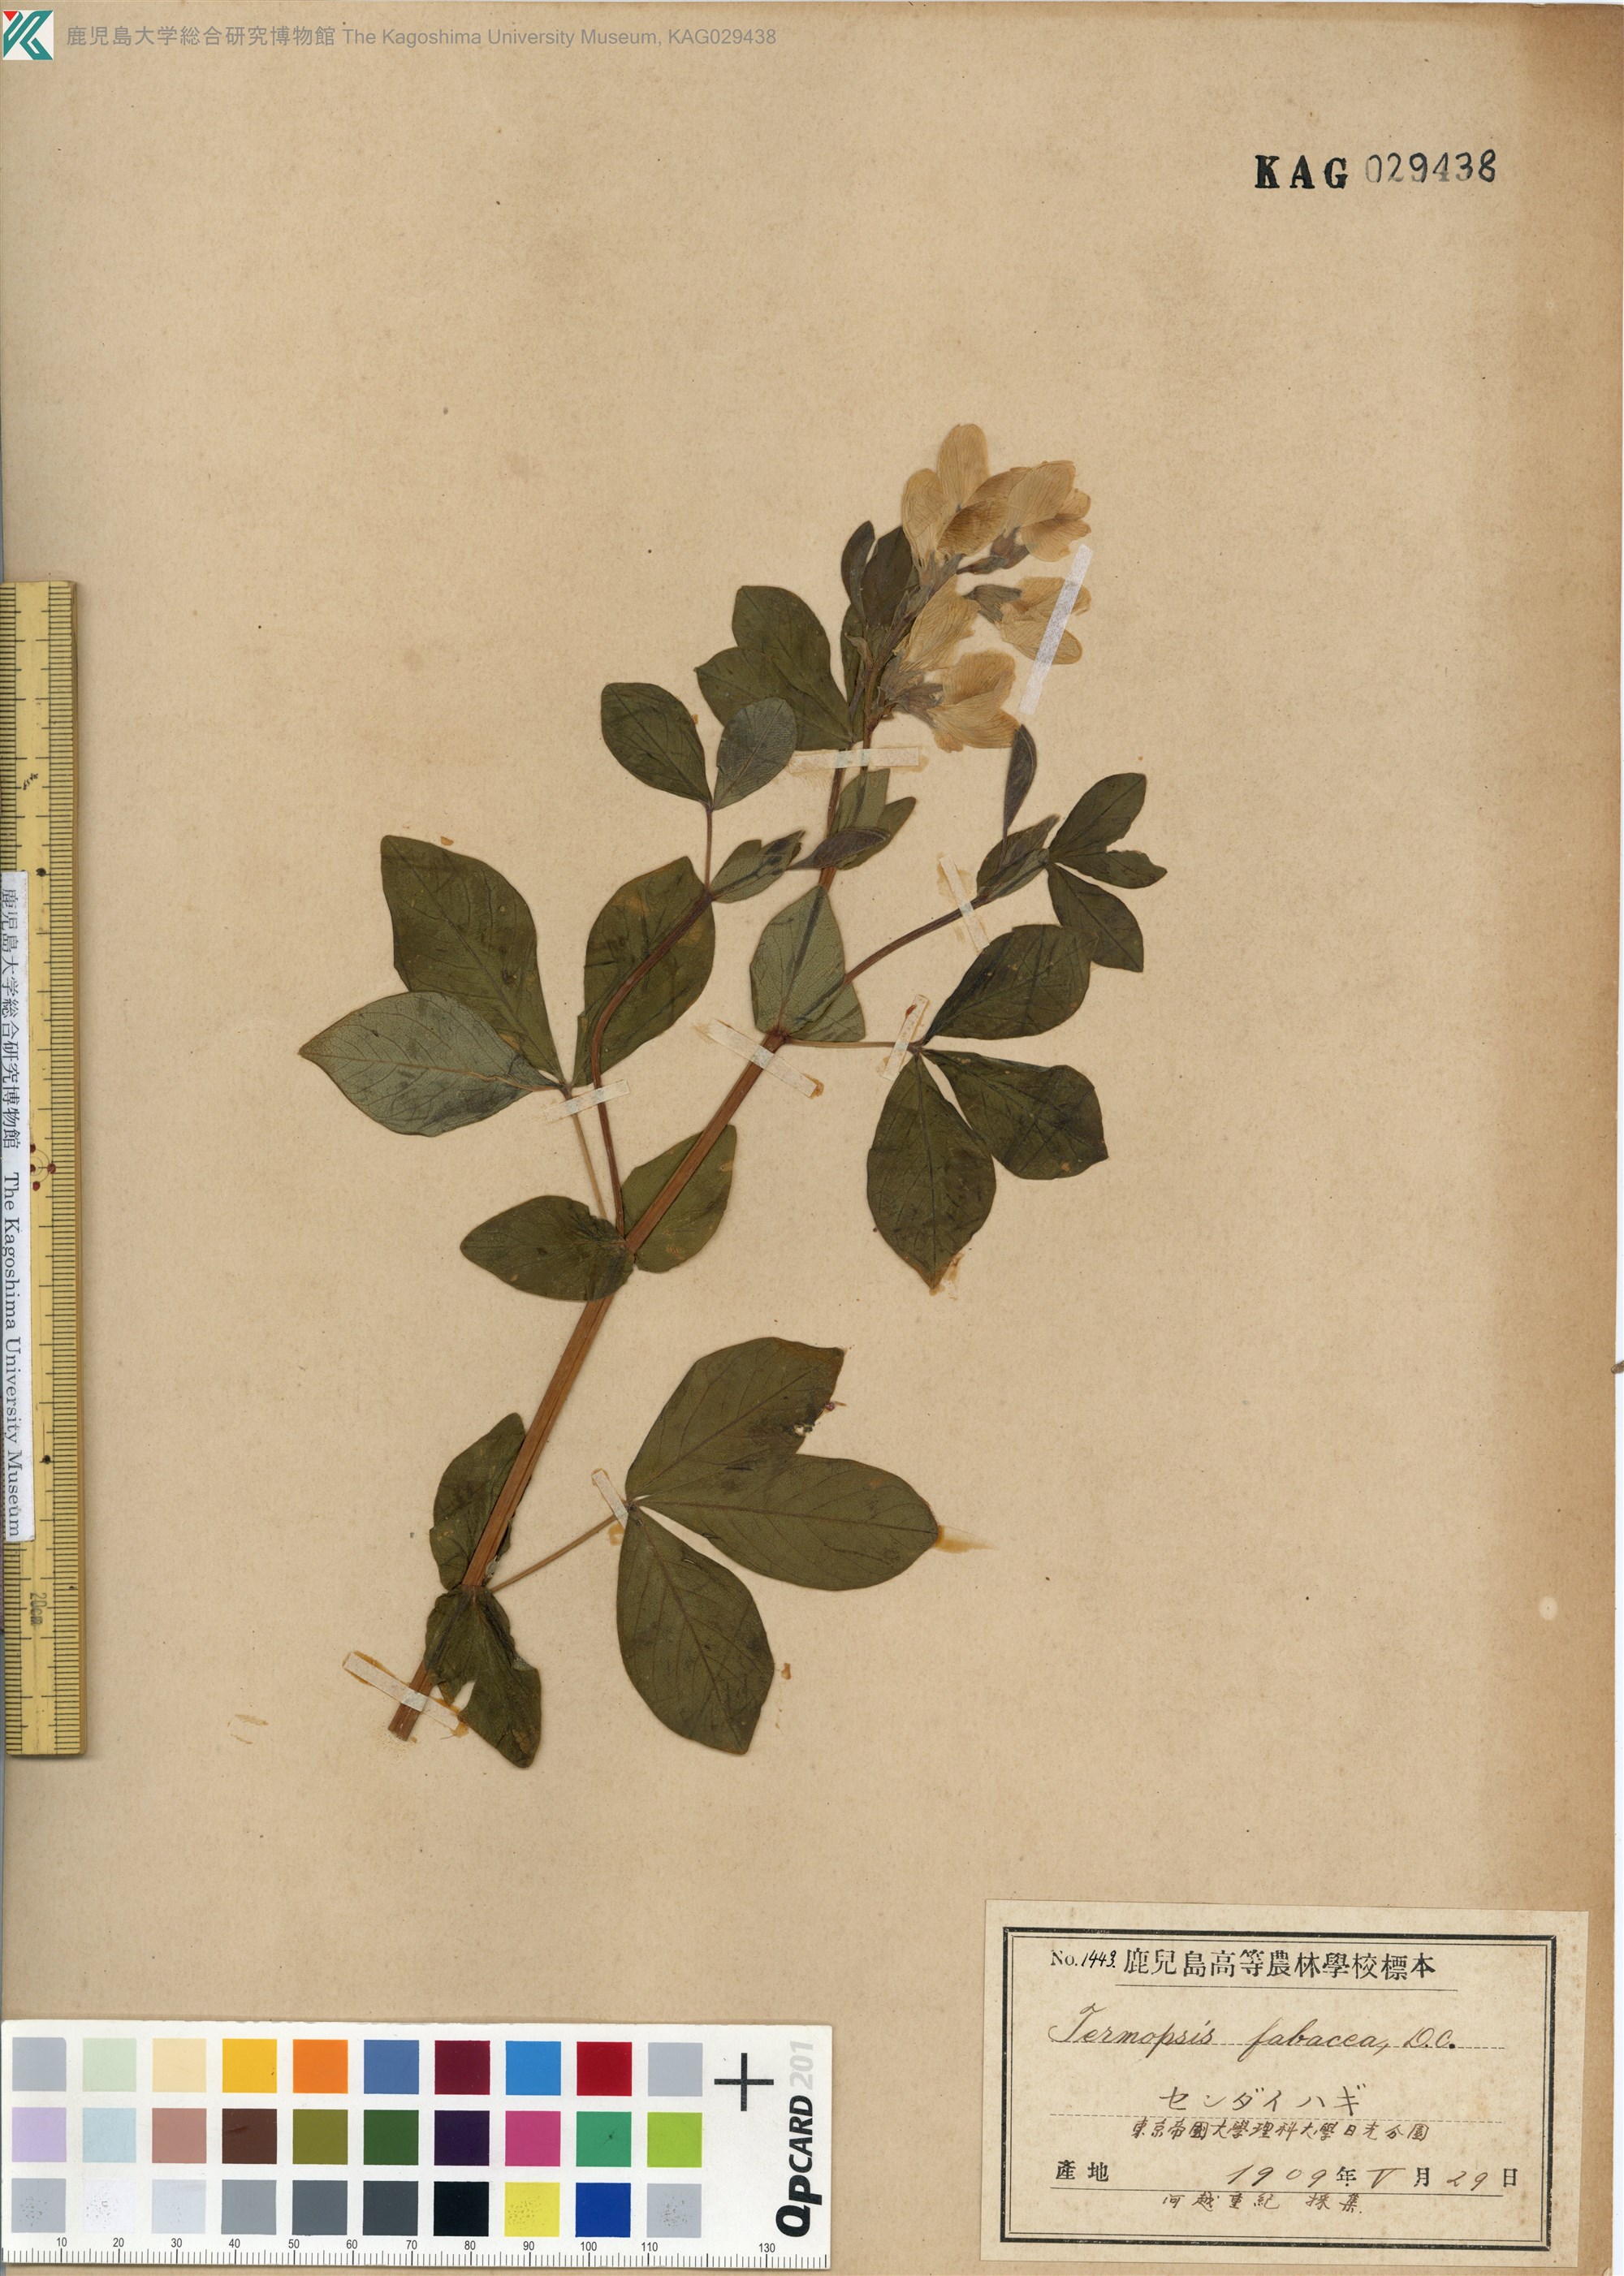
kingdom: Plantae
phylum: Tracheophyta
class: Magnoliopsida
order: Fabales
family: Fabaceae
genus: Thermopsis
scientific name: Thermopsis lanceolata
